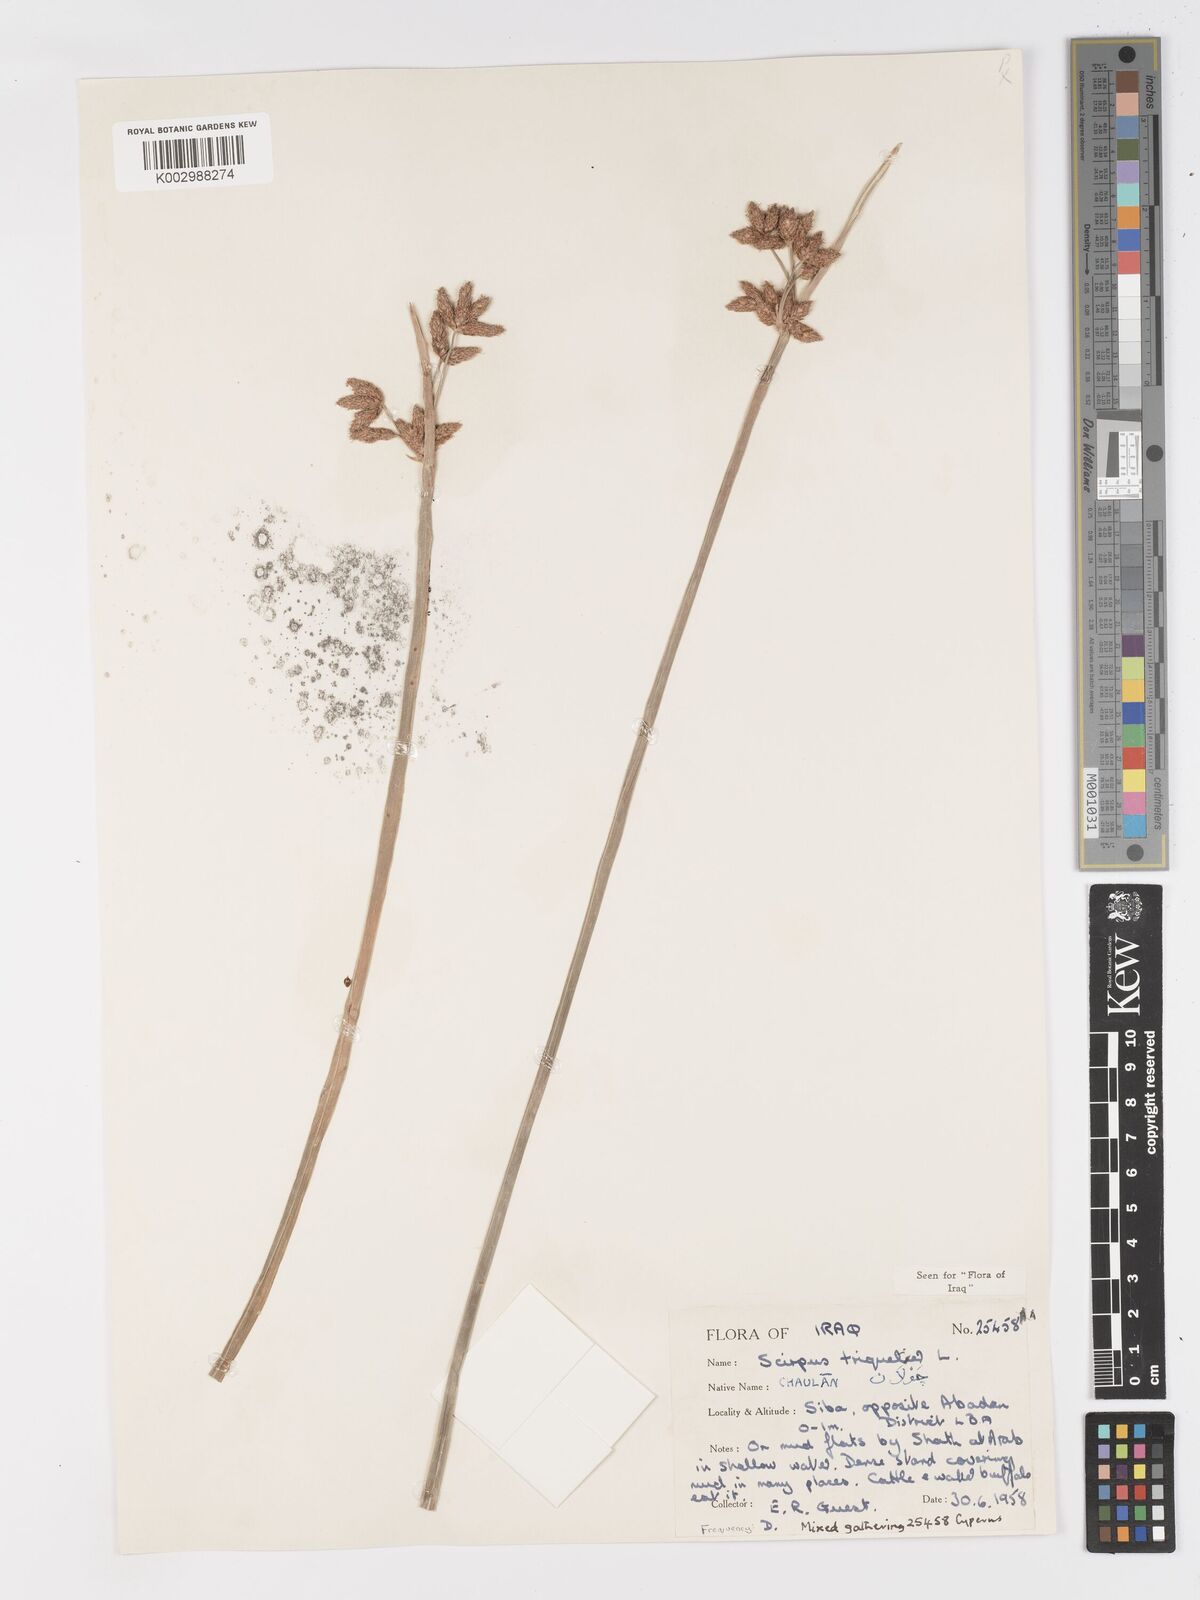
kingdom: Plantae
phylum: Tracheophyta
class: Liliopsida
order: Poales
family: Cyperaceae
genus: Schoenoplectus
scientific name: Schoenoplectus triqueter
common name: Triangular club-rush
